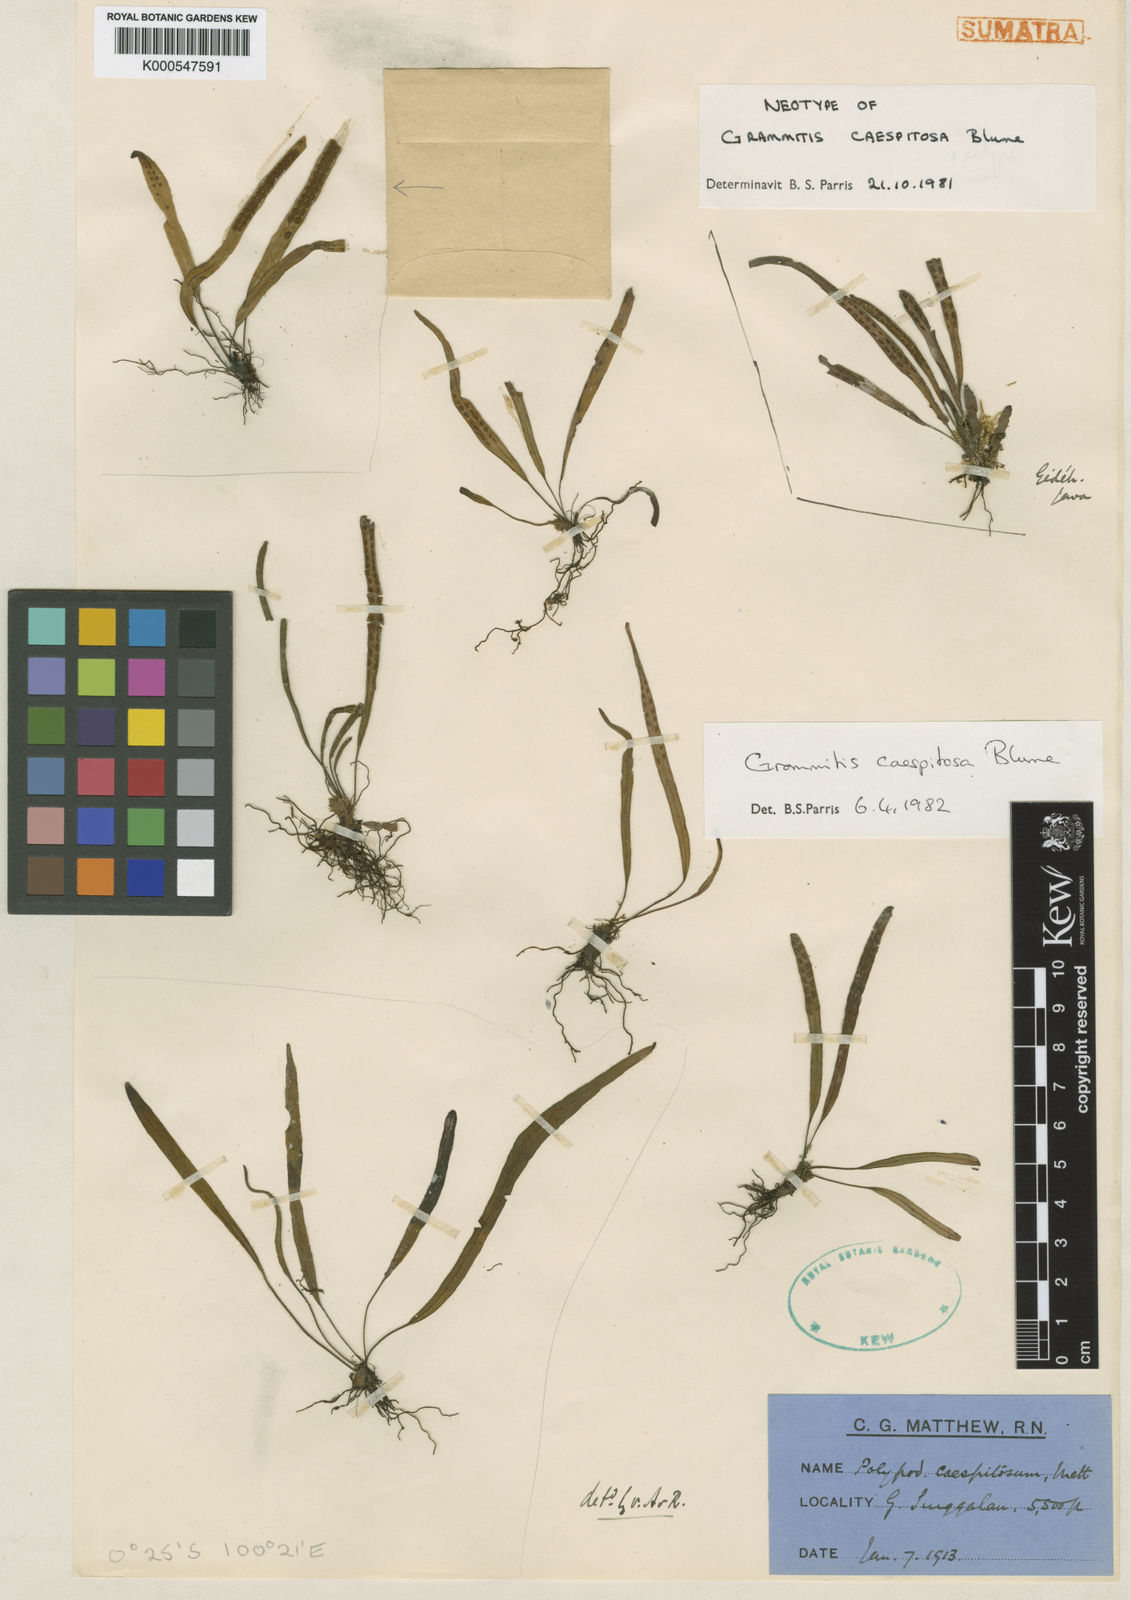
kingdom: Plantae
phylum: Tracheophyta
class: Polypodiopsida
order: Polypodiales
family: Polypodiaceae
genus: Oreogrammitis
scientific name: Oreogrammitis caespitosa
